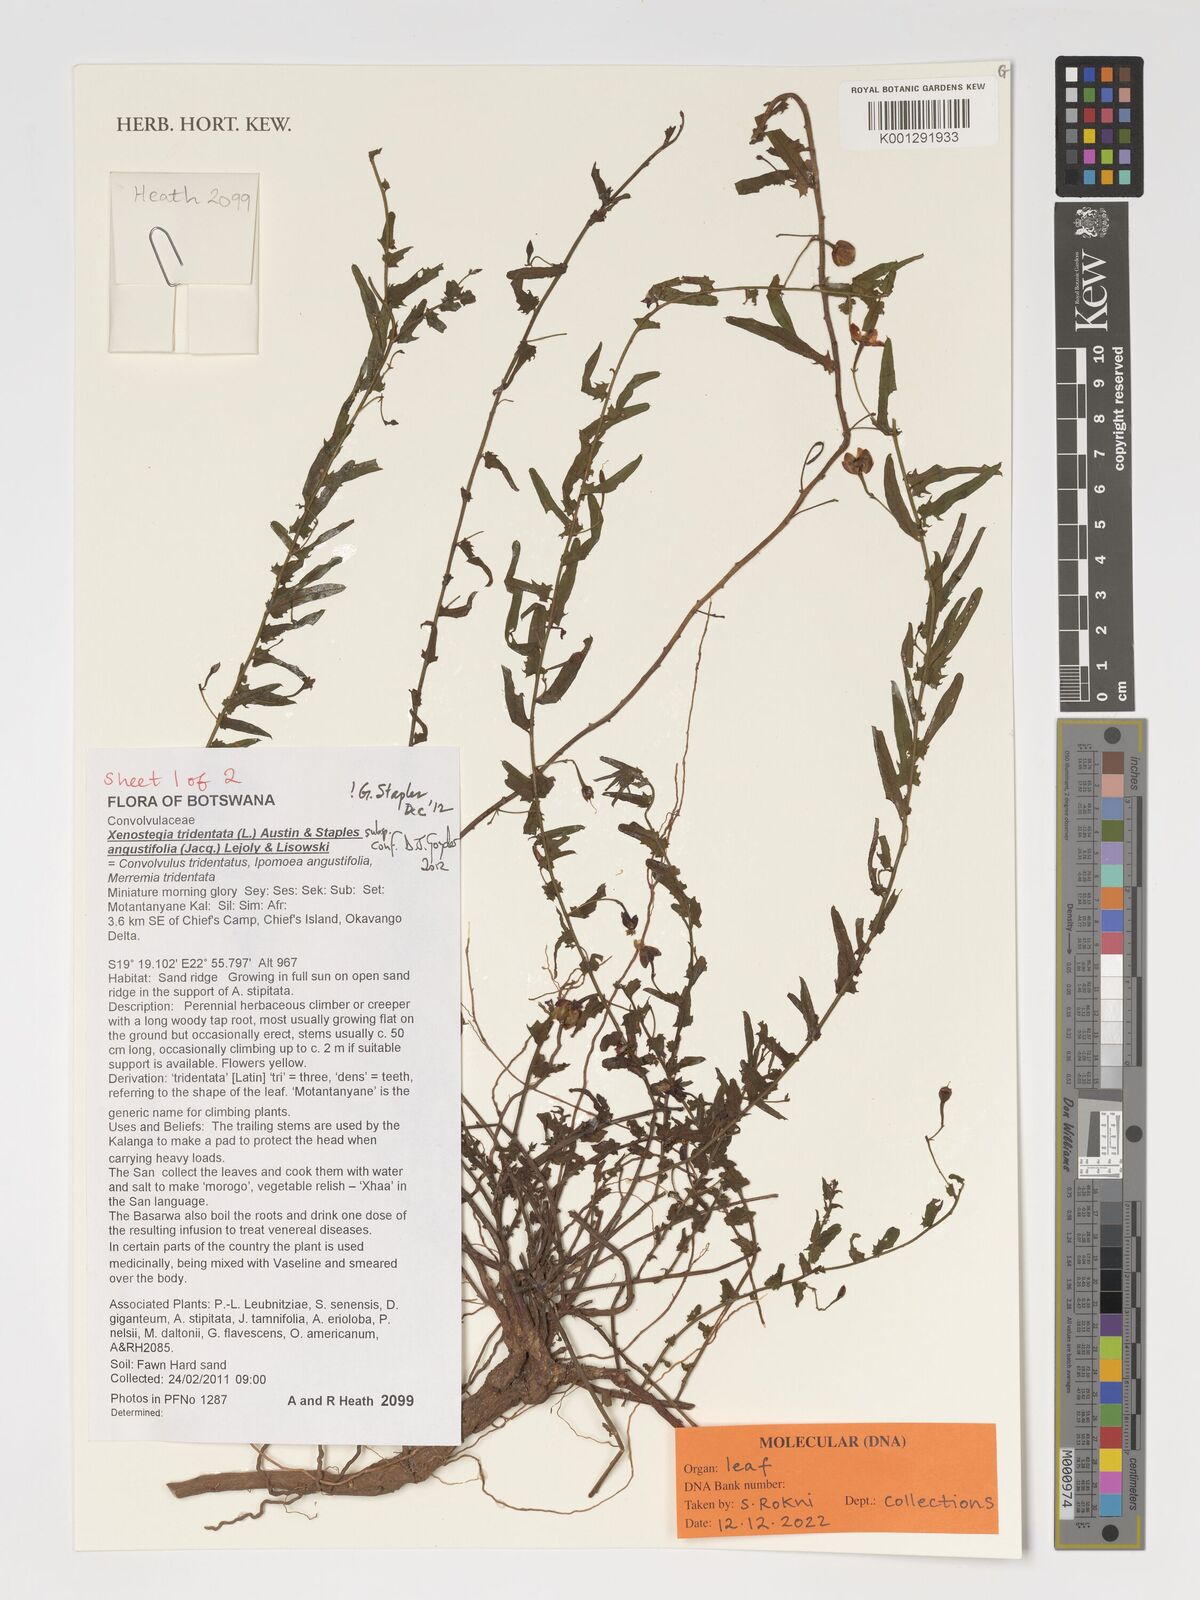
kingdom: Plantae
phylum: Tracheophyta
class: Magnoliopsida
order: Solanales
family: Convolvulaceae
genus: Xenostegia
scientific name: Xenostegia tridentata
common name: African morningvine
